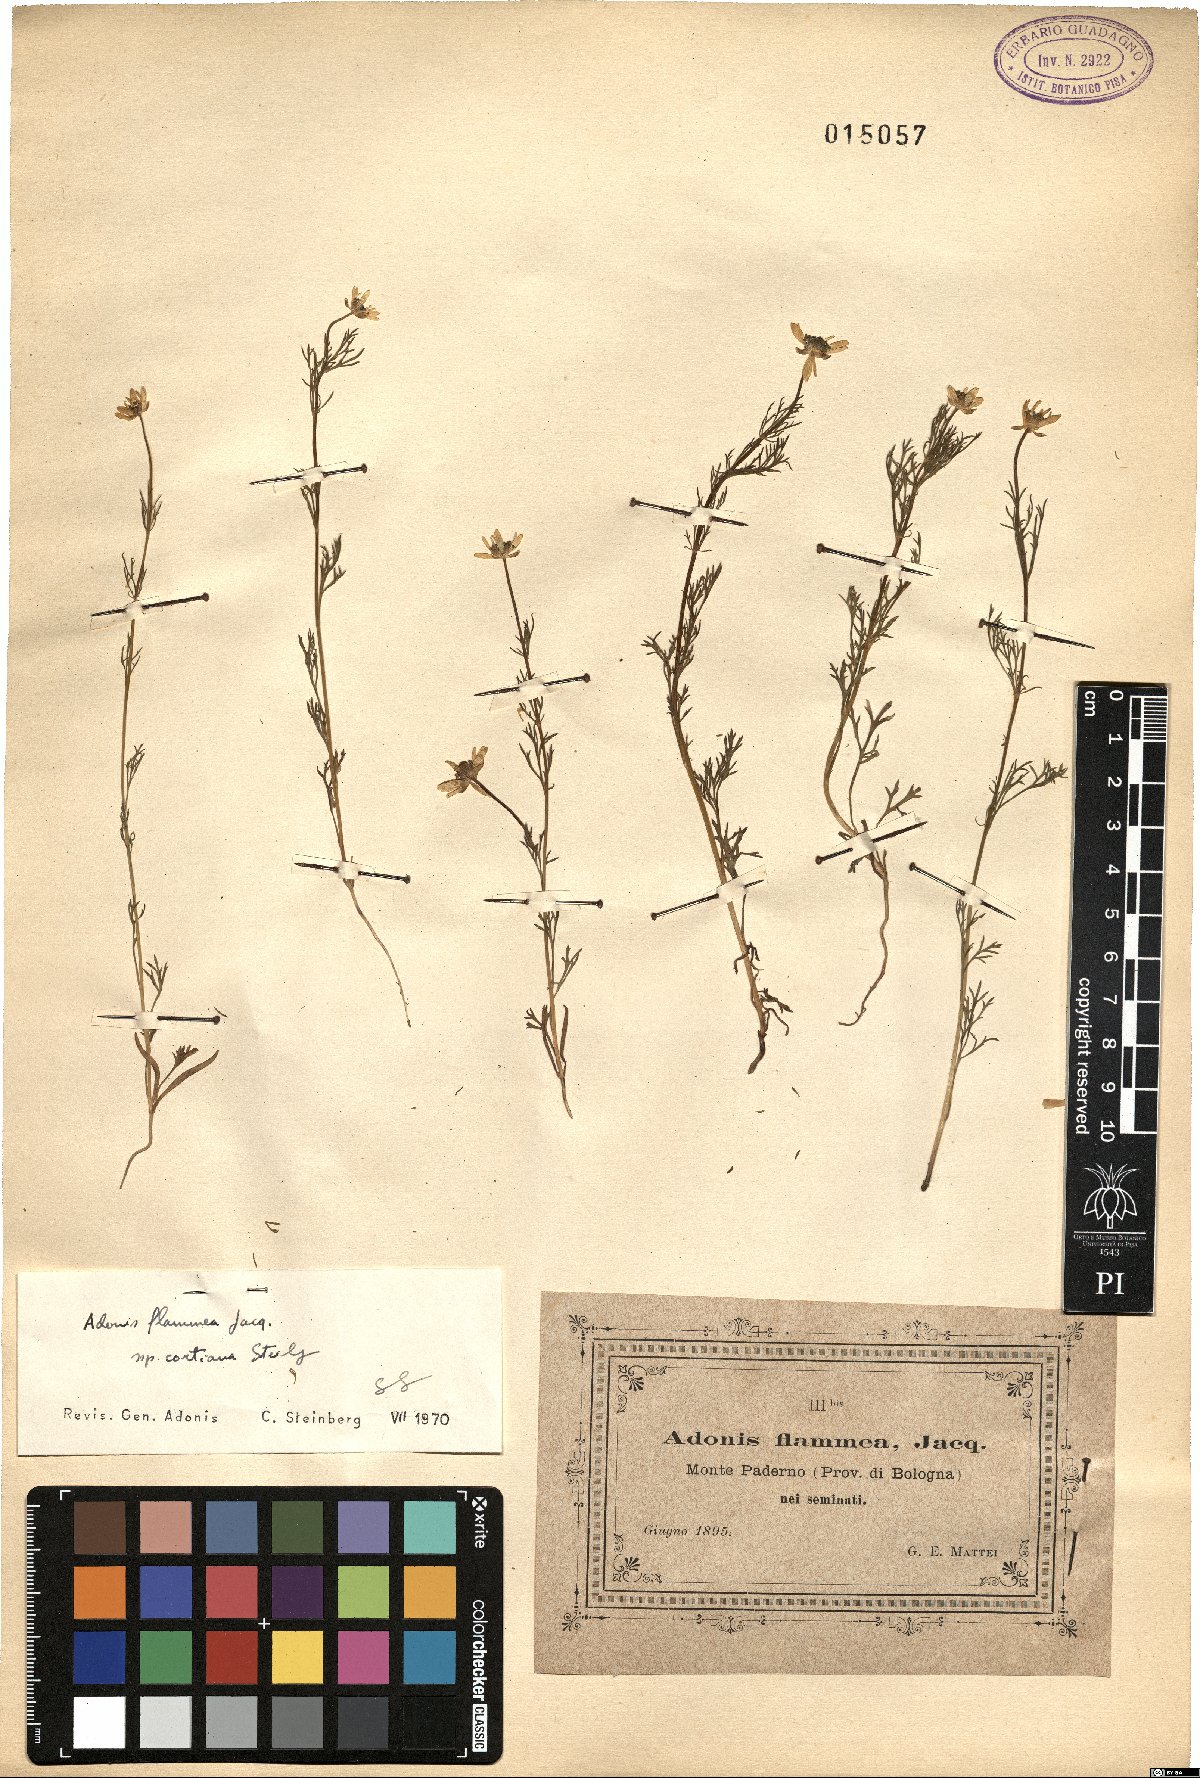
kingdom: Plantae
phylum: Tracheophyta
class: Magnoliopsida
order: Ranunculales
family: Ranunculaceae
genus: Adonis
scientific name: Adonis flammea
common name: Large pheasant's-eye
